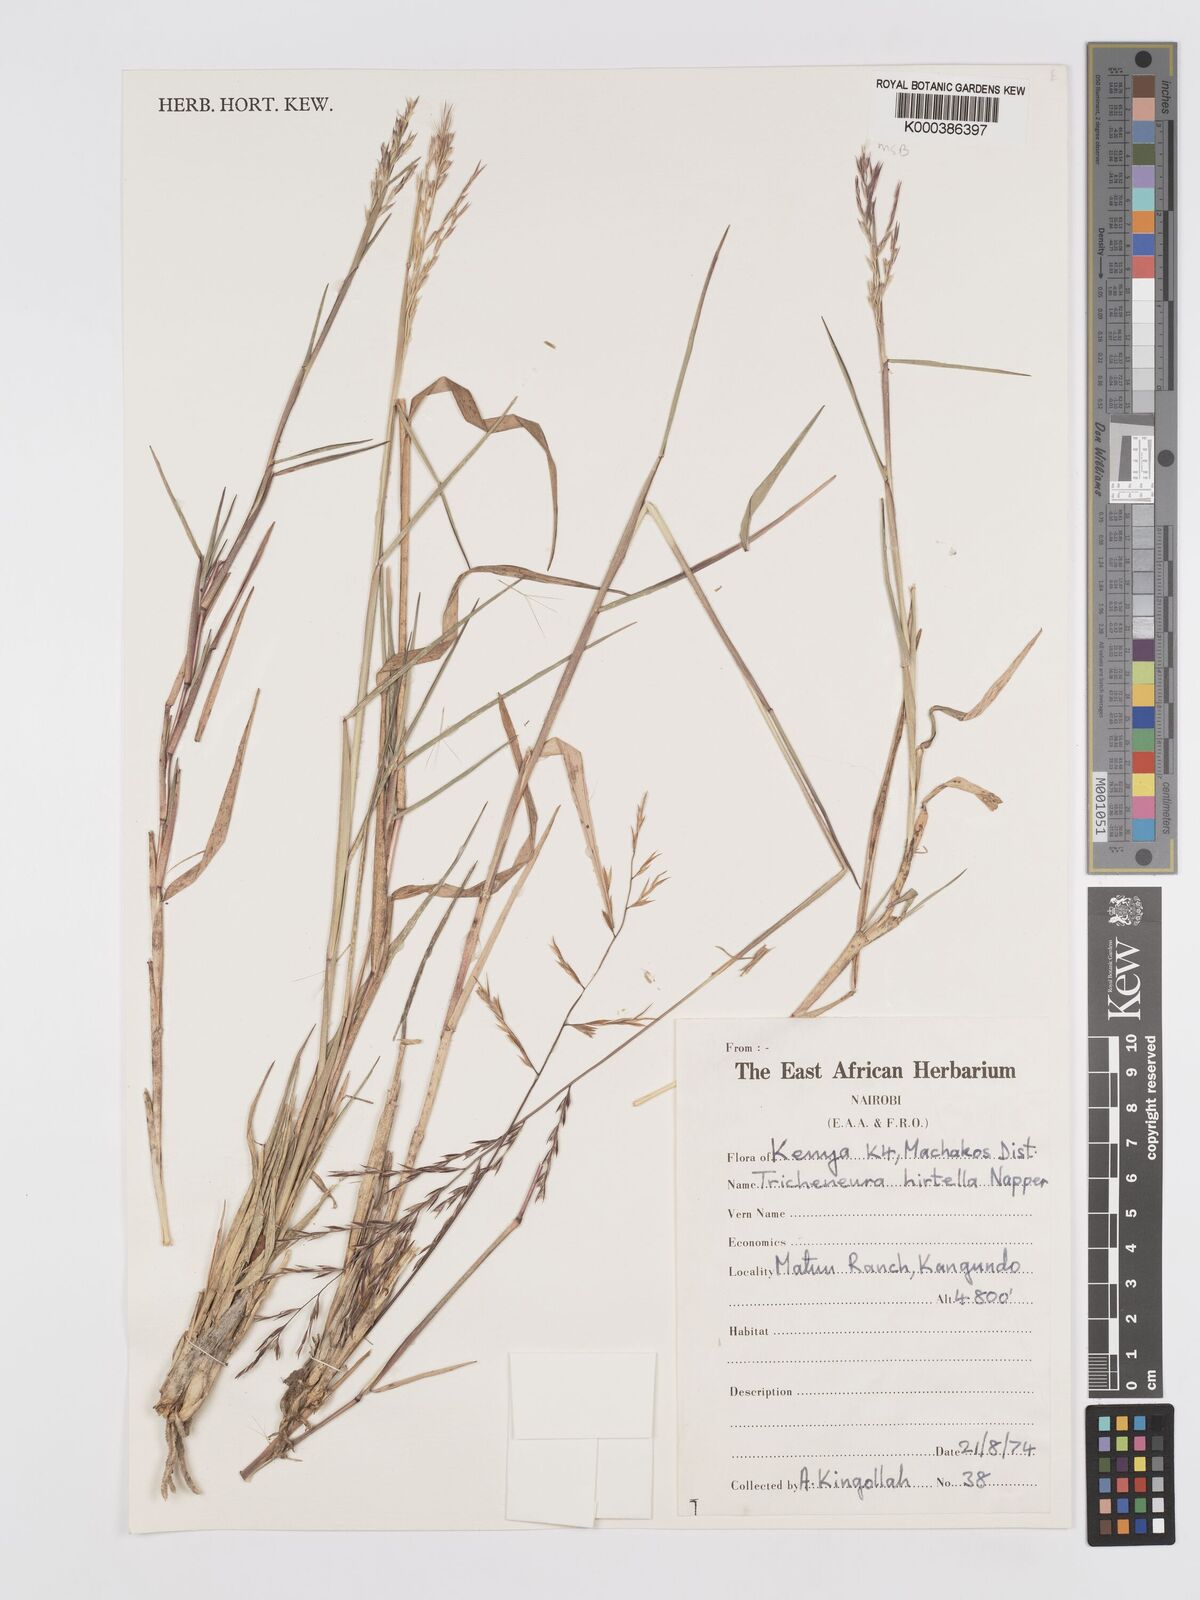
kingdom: Plantae
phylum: Tracheophyta
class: Liliopsida
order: Poales
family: Poaceae
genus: Trichoneura
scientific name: Trichoneura ciliata
